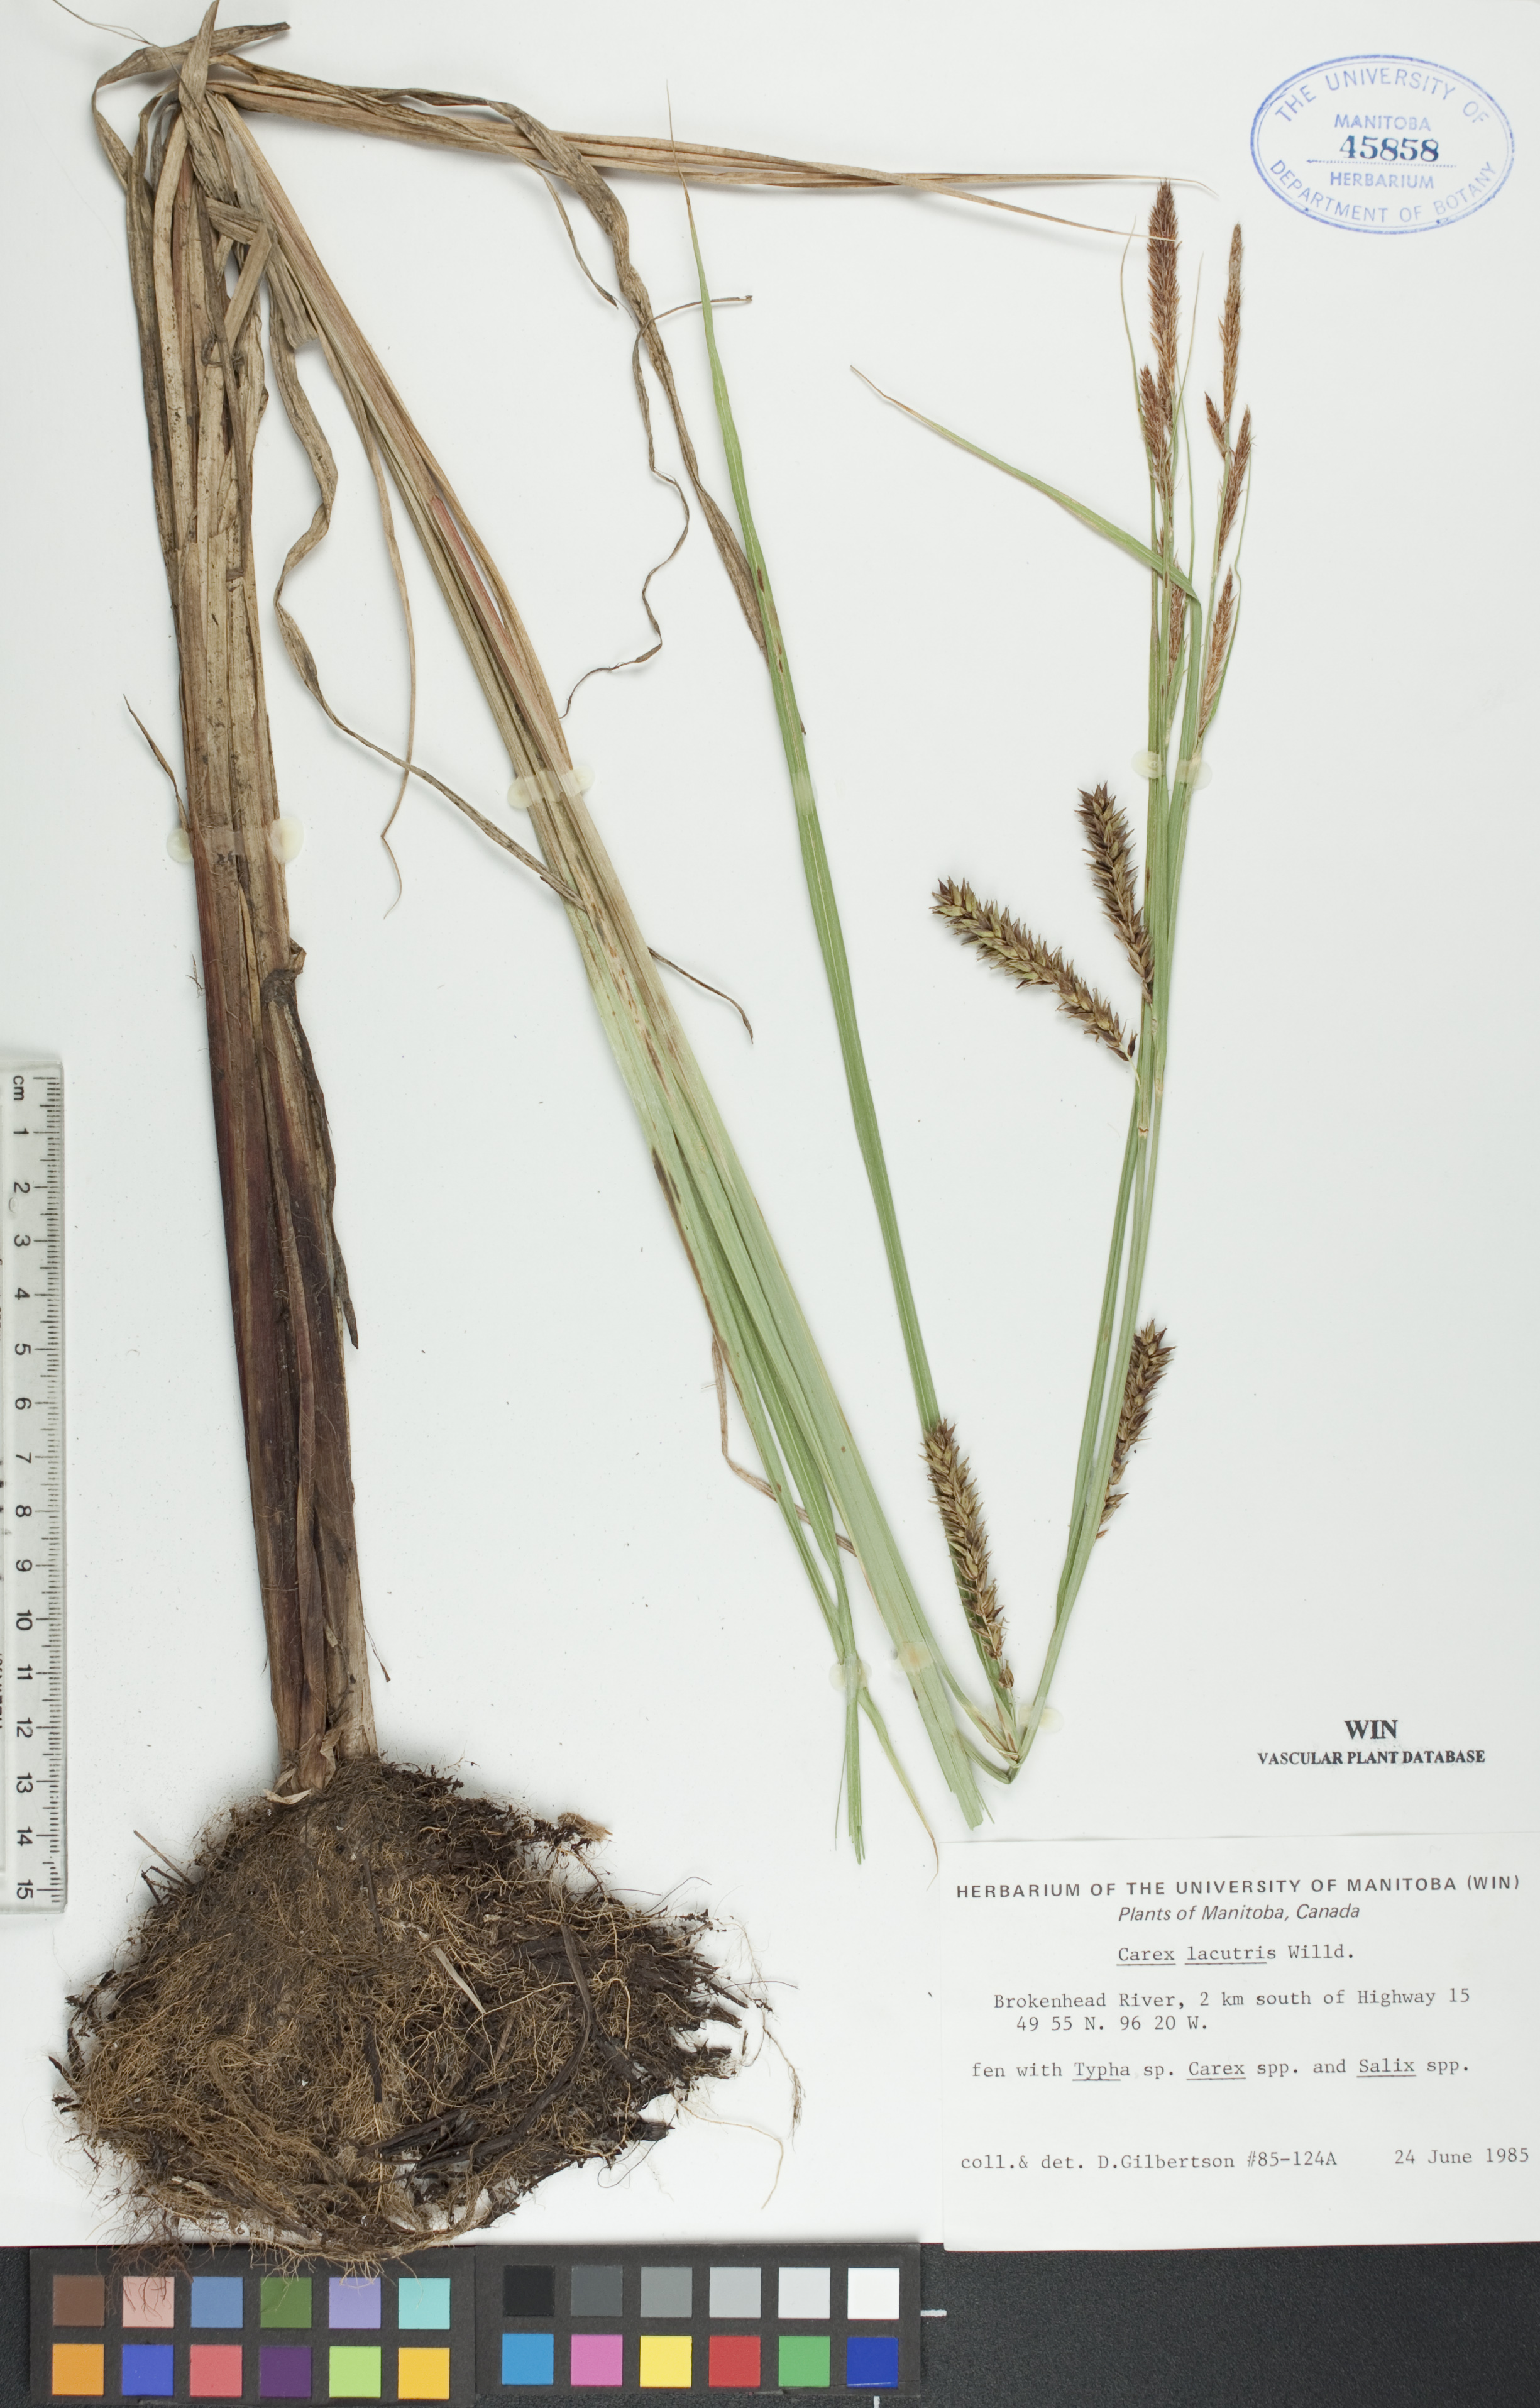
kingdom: Plantae
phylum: Tracheophyta
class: Liliopsida
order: Poales
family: Cyperaceae
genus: Carex
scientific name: Carex lacustris
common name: Common lake sedge
